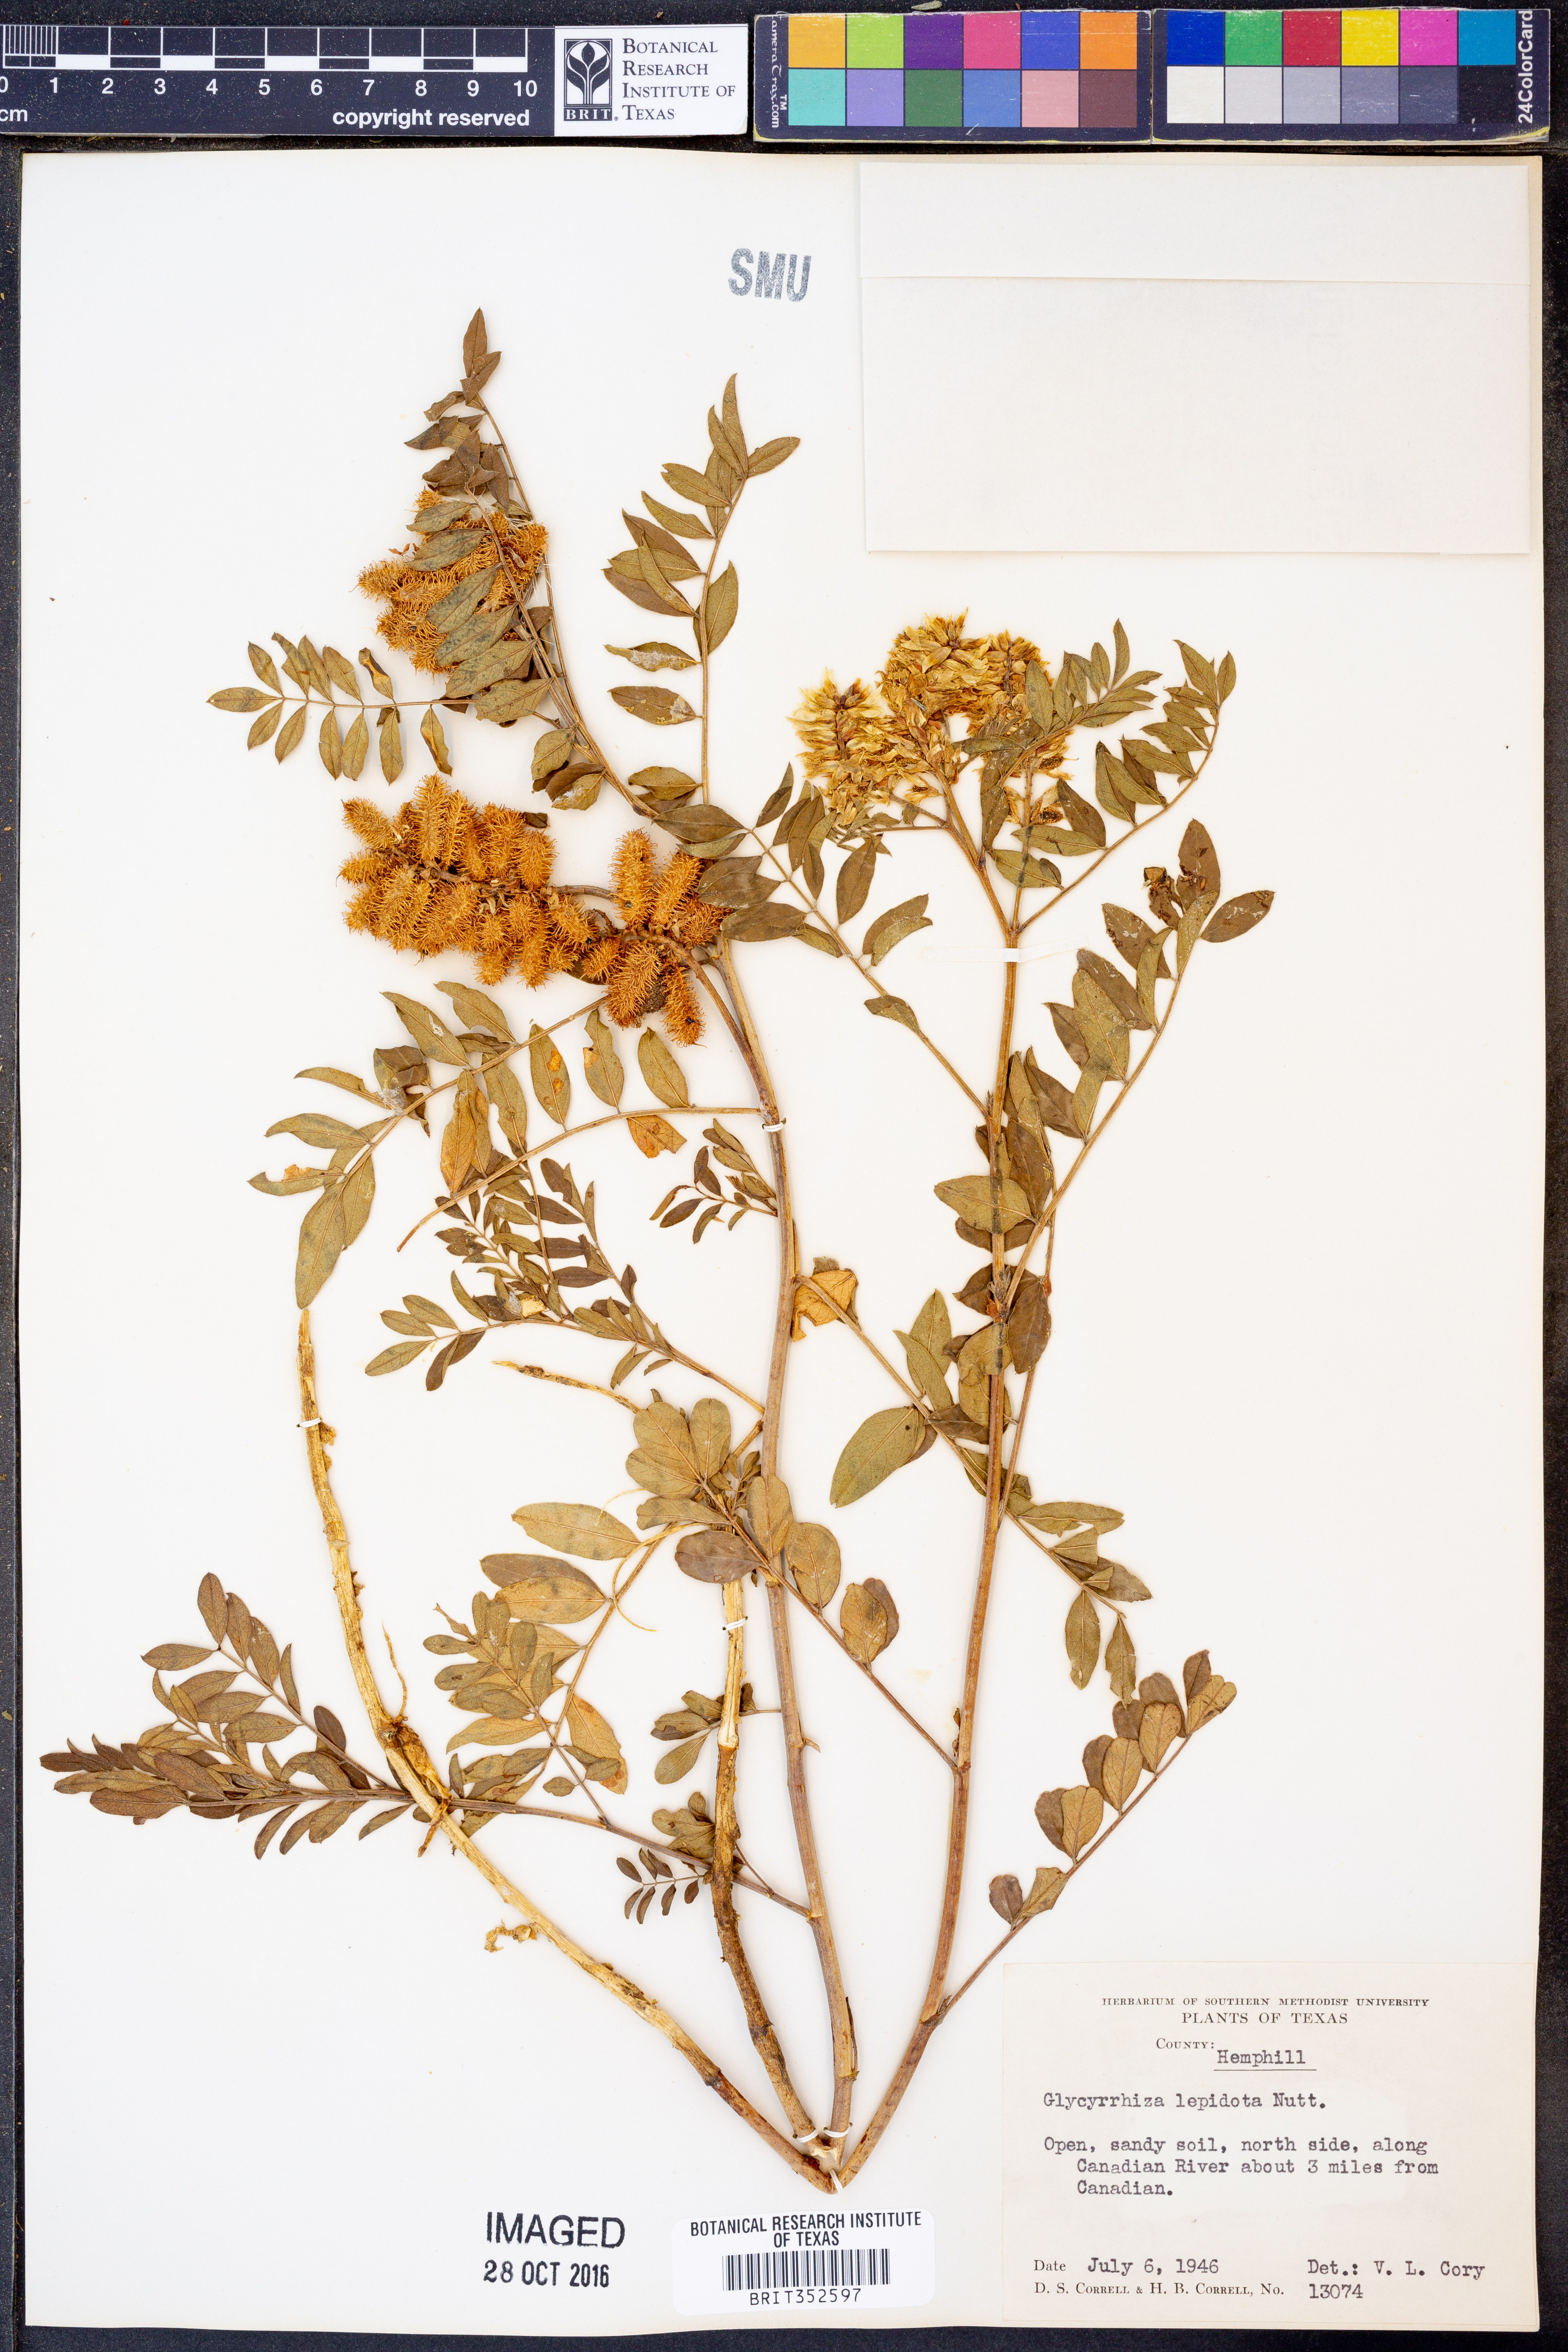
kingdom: Plantae
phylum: Tracheophyta
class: Magnoliopsida
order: Fabales
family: Fabaceae
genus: Glycyrrhiza
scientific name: Glycyrrhiza lepidota
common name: American liquorice
